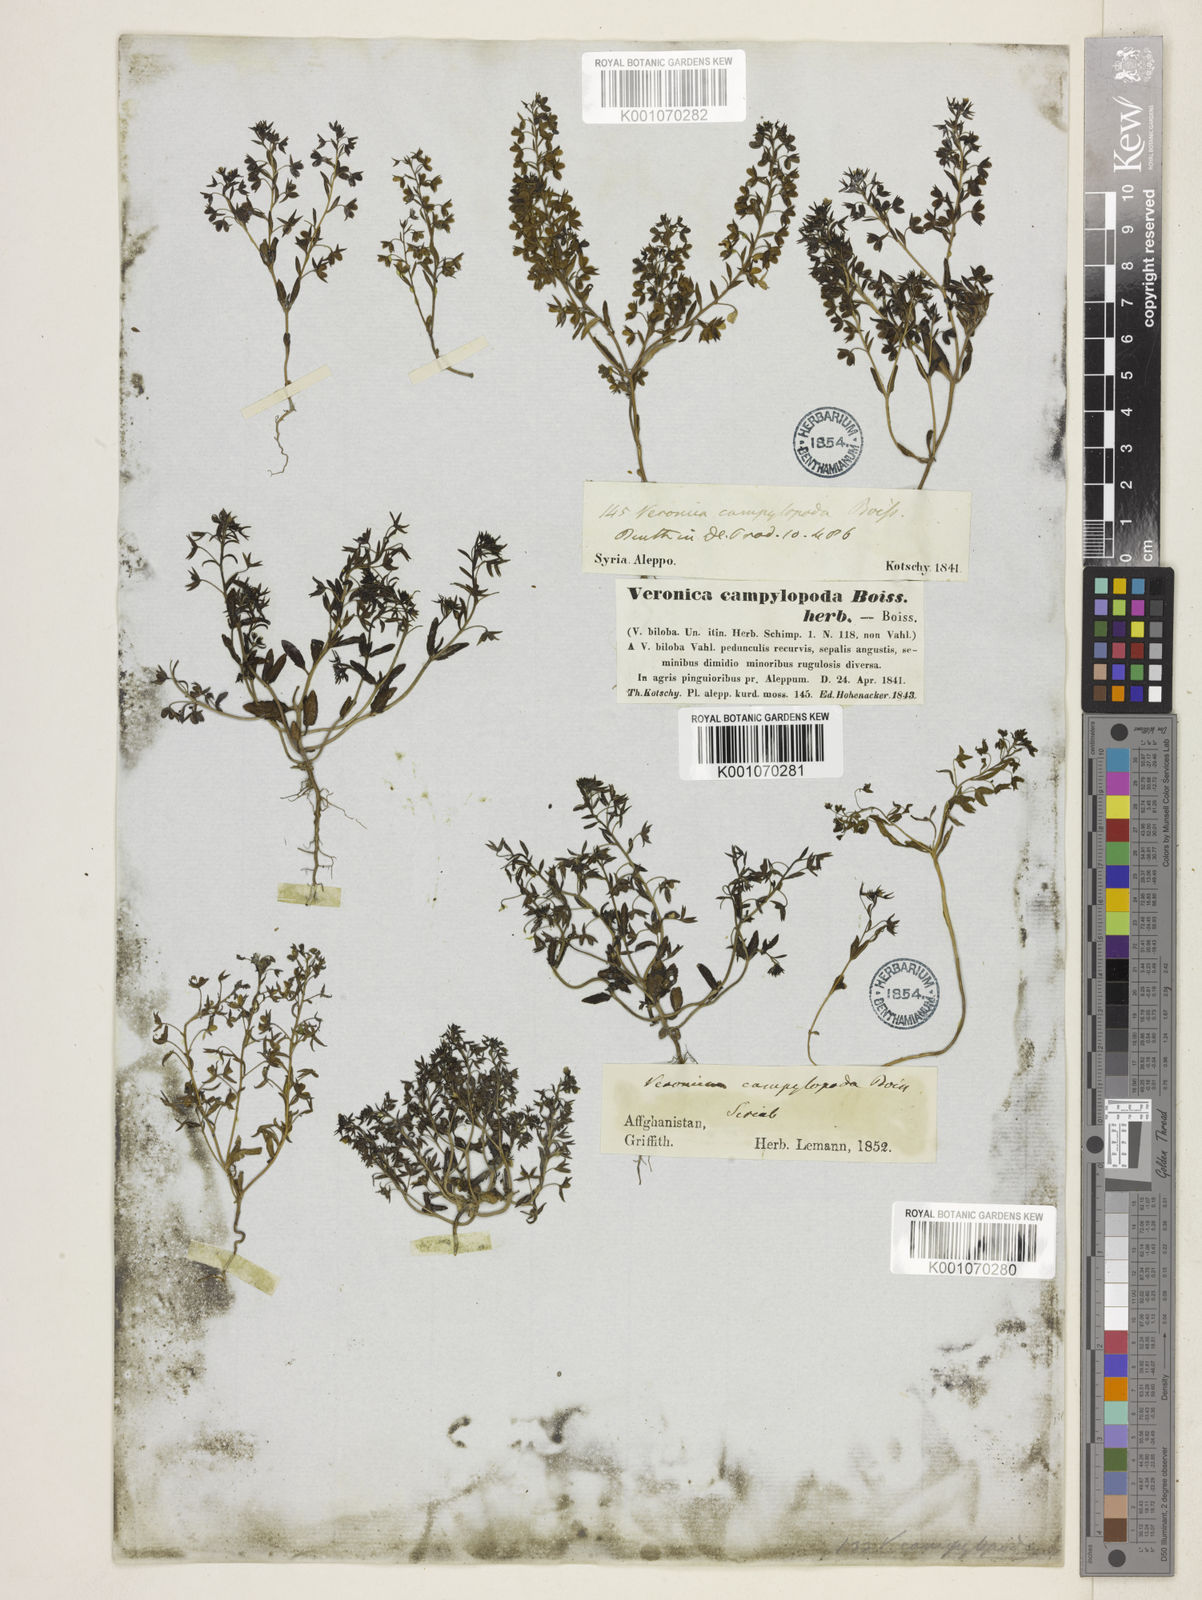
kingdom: Plantae
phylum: Tracheophyta
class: Magnoliopsida
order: Lamiales
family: Plantaginaceae
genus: Veronica
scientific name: Veronica campylopoda
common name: Bent-foot speedwell
